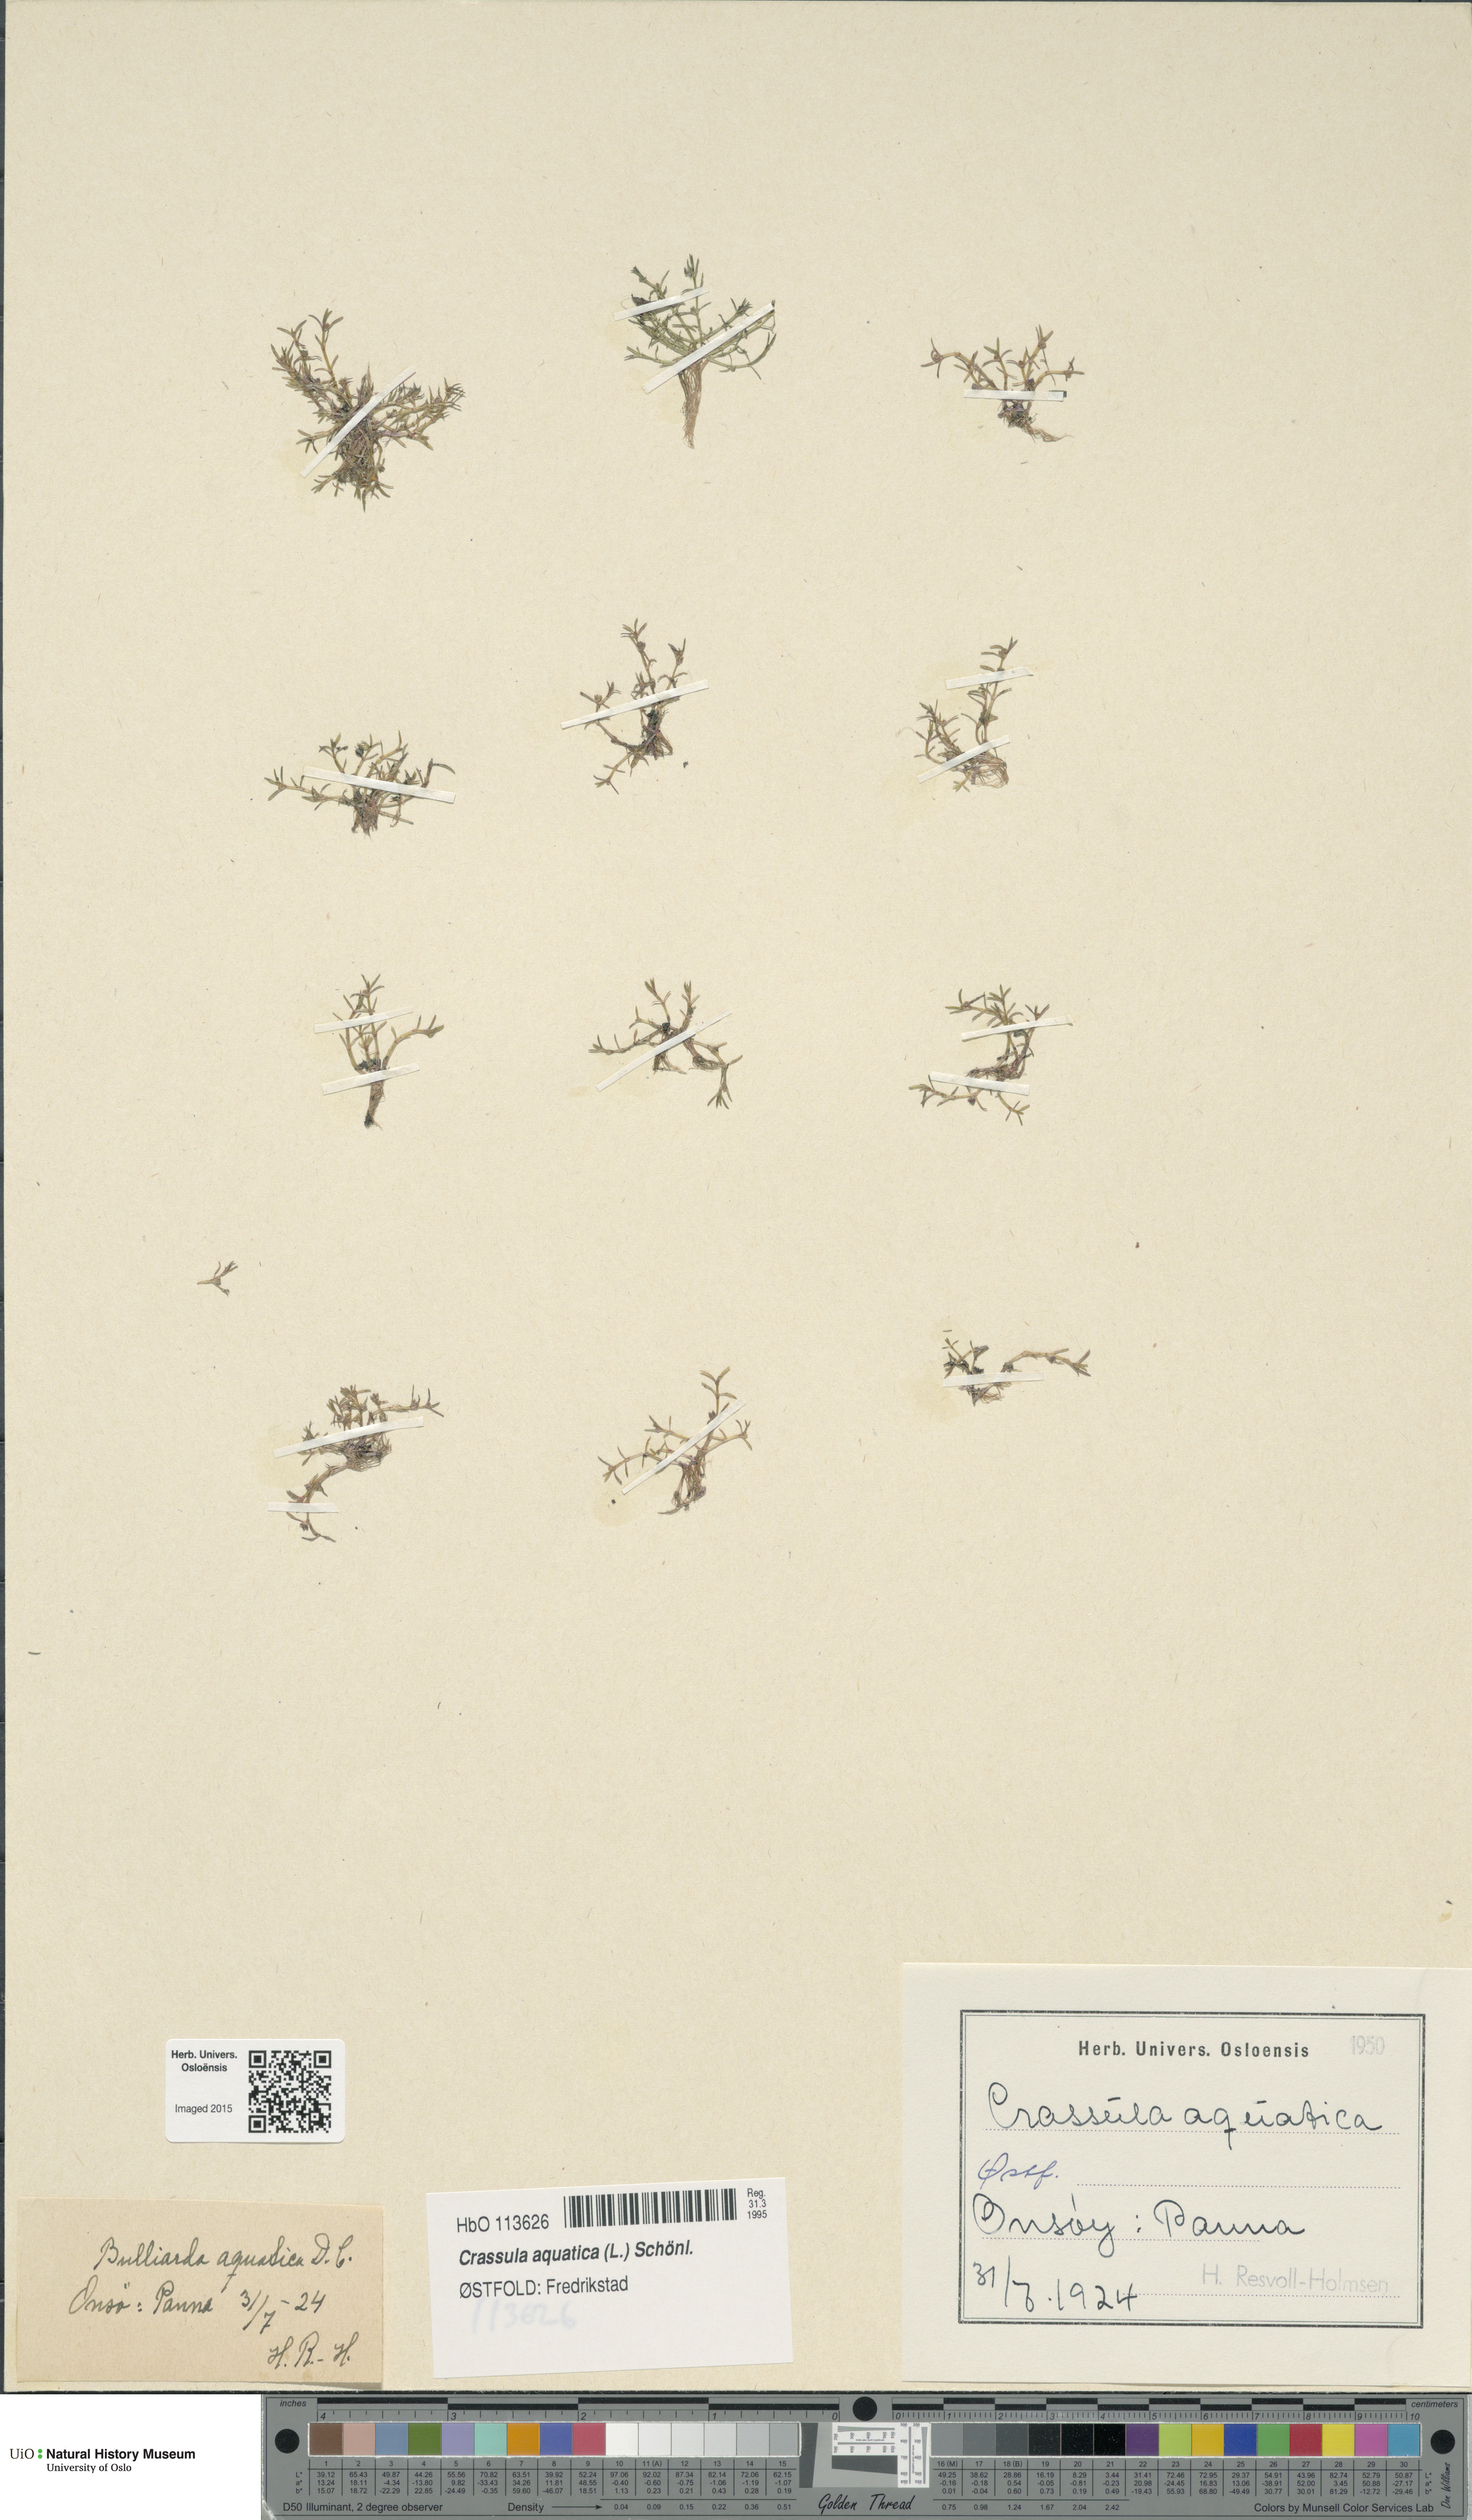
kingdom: Plantae
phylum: Tracheophyta
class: Magnoliopsida
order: Saxifragales
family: Crassulaceae
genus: Crassula
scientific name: Crassula aquatica
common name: Pigmyweed
